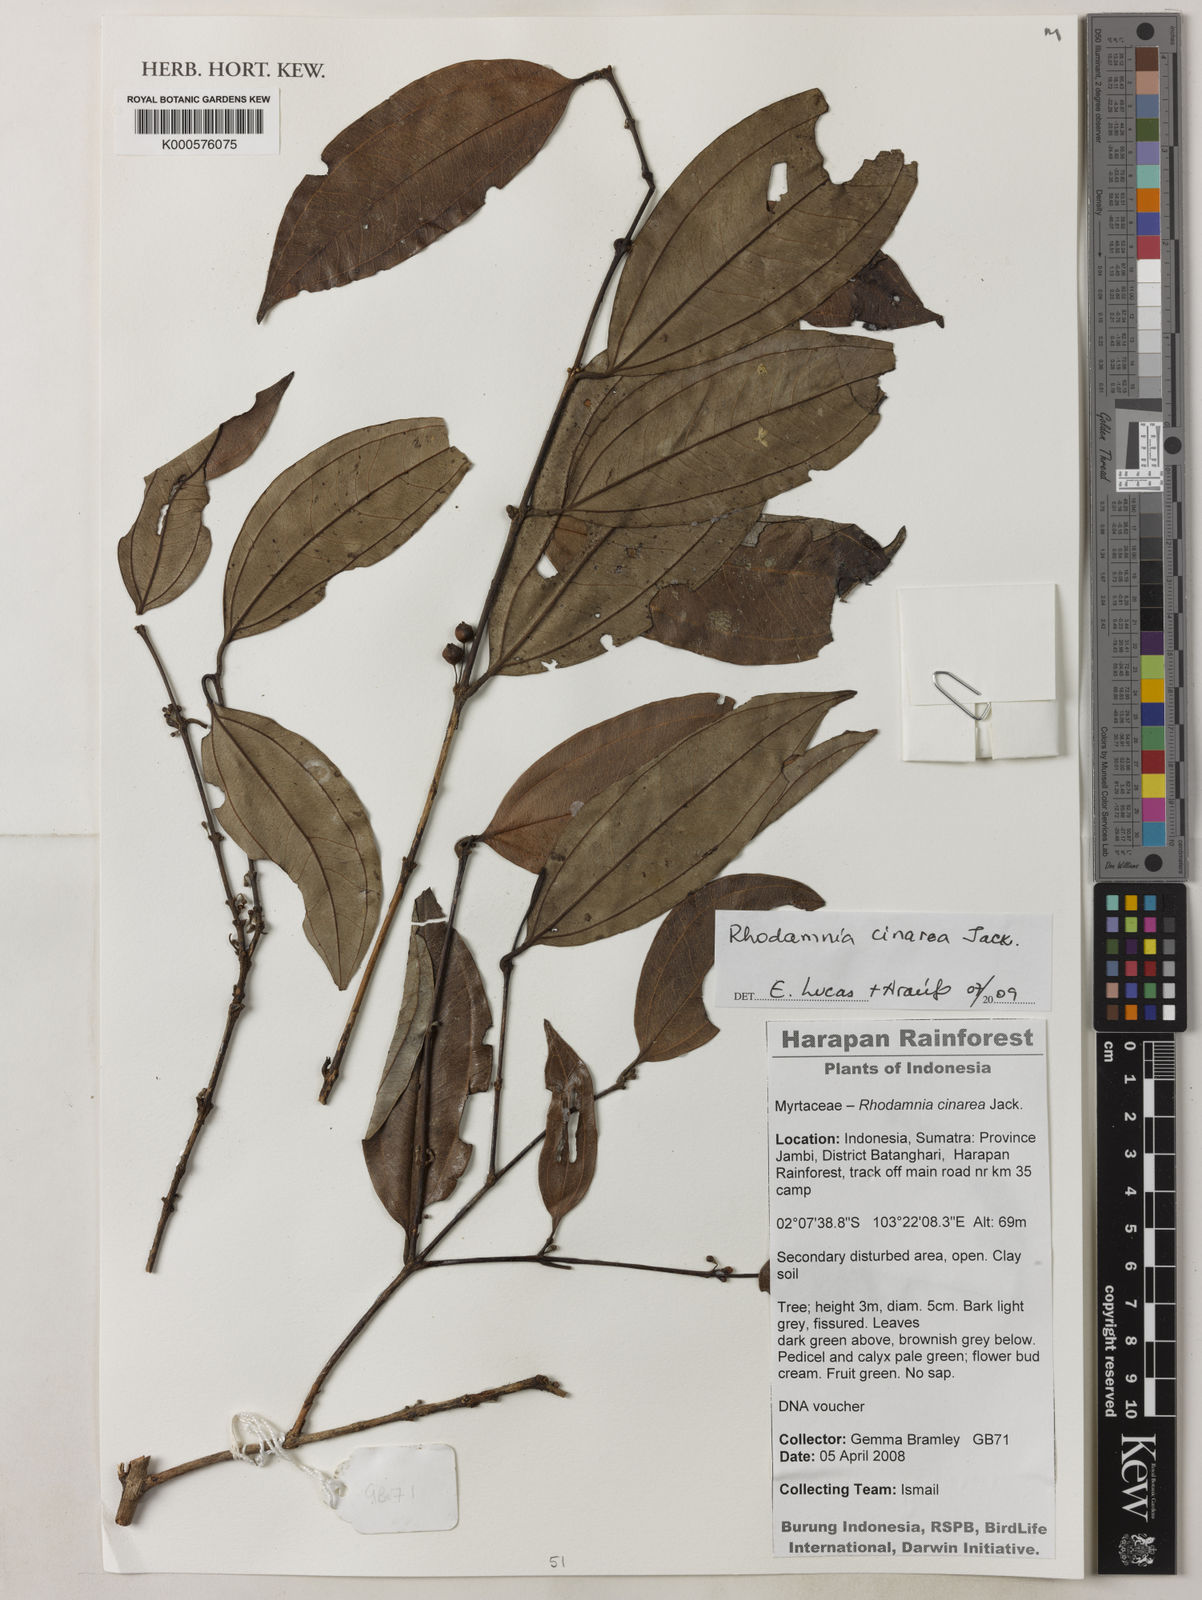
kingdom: Plantae
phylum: Tracheophyta
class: Magnoliopsida
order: Myrtales
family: Myrtaceae
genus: Rhodamnia
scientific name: Rhodamnia cinerea
